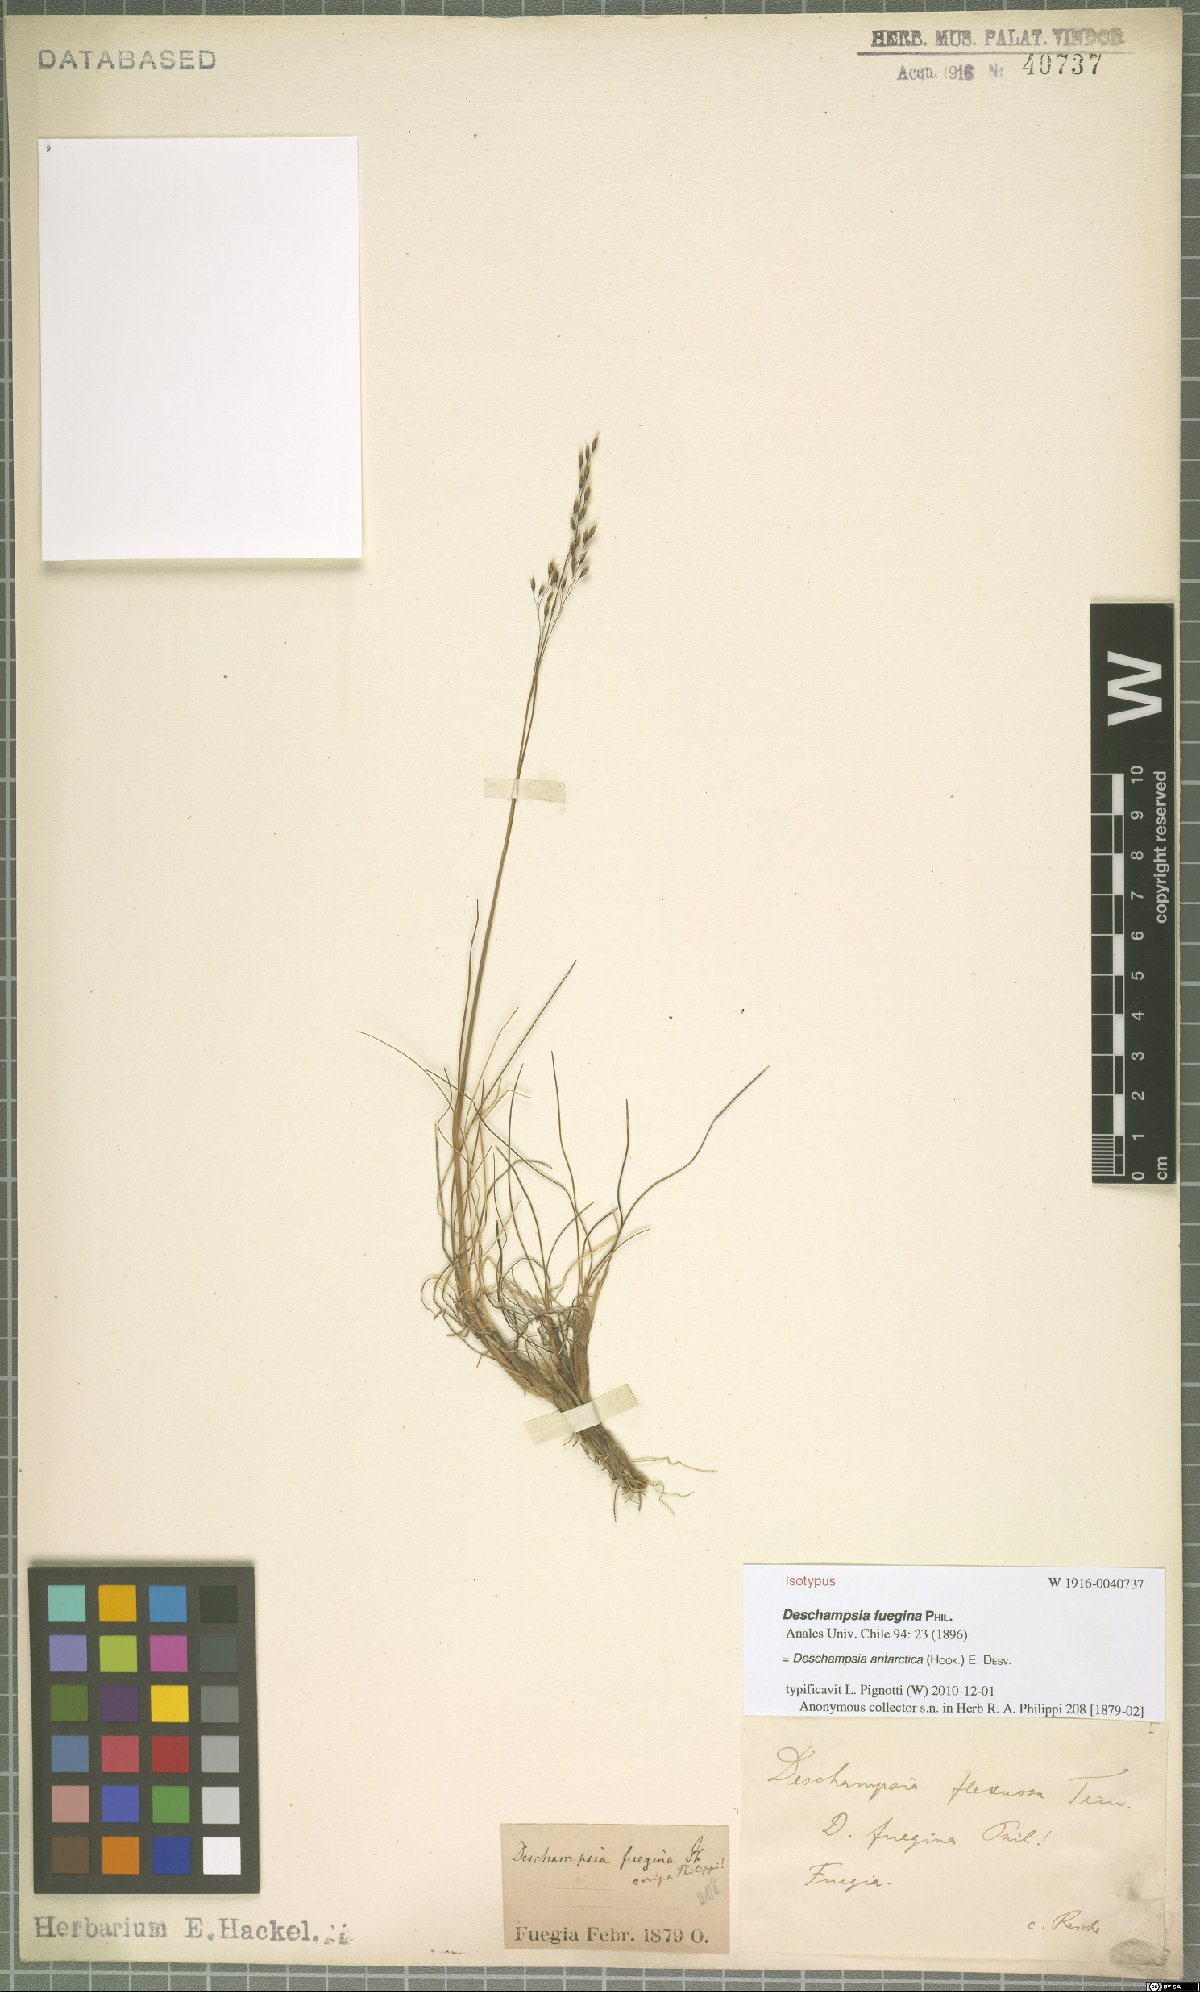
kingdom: Plantae
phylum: Tracheophyta
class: Liliopsida
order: Poales
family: Poaceae
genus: Deschampsia
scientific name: Deschampsia antarctica
